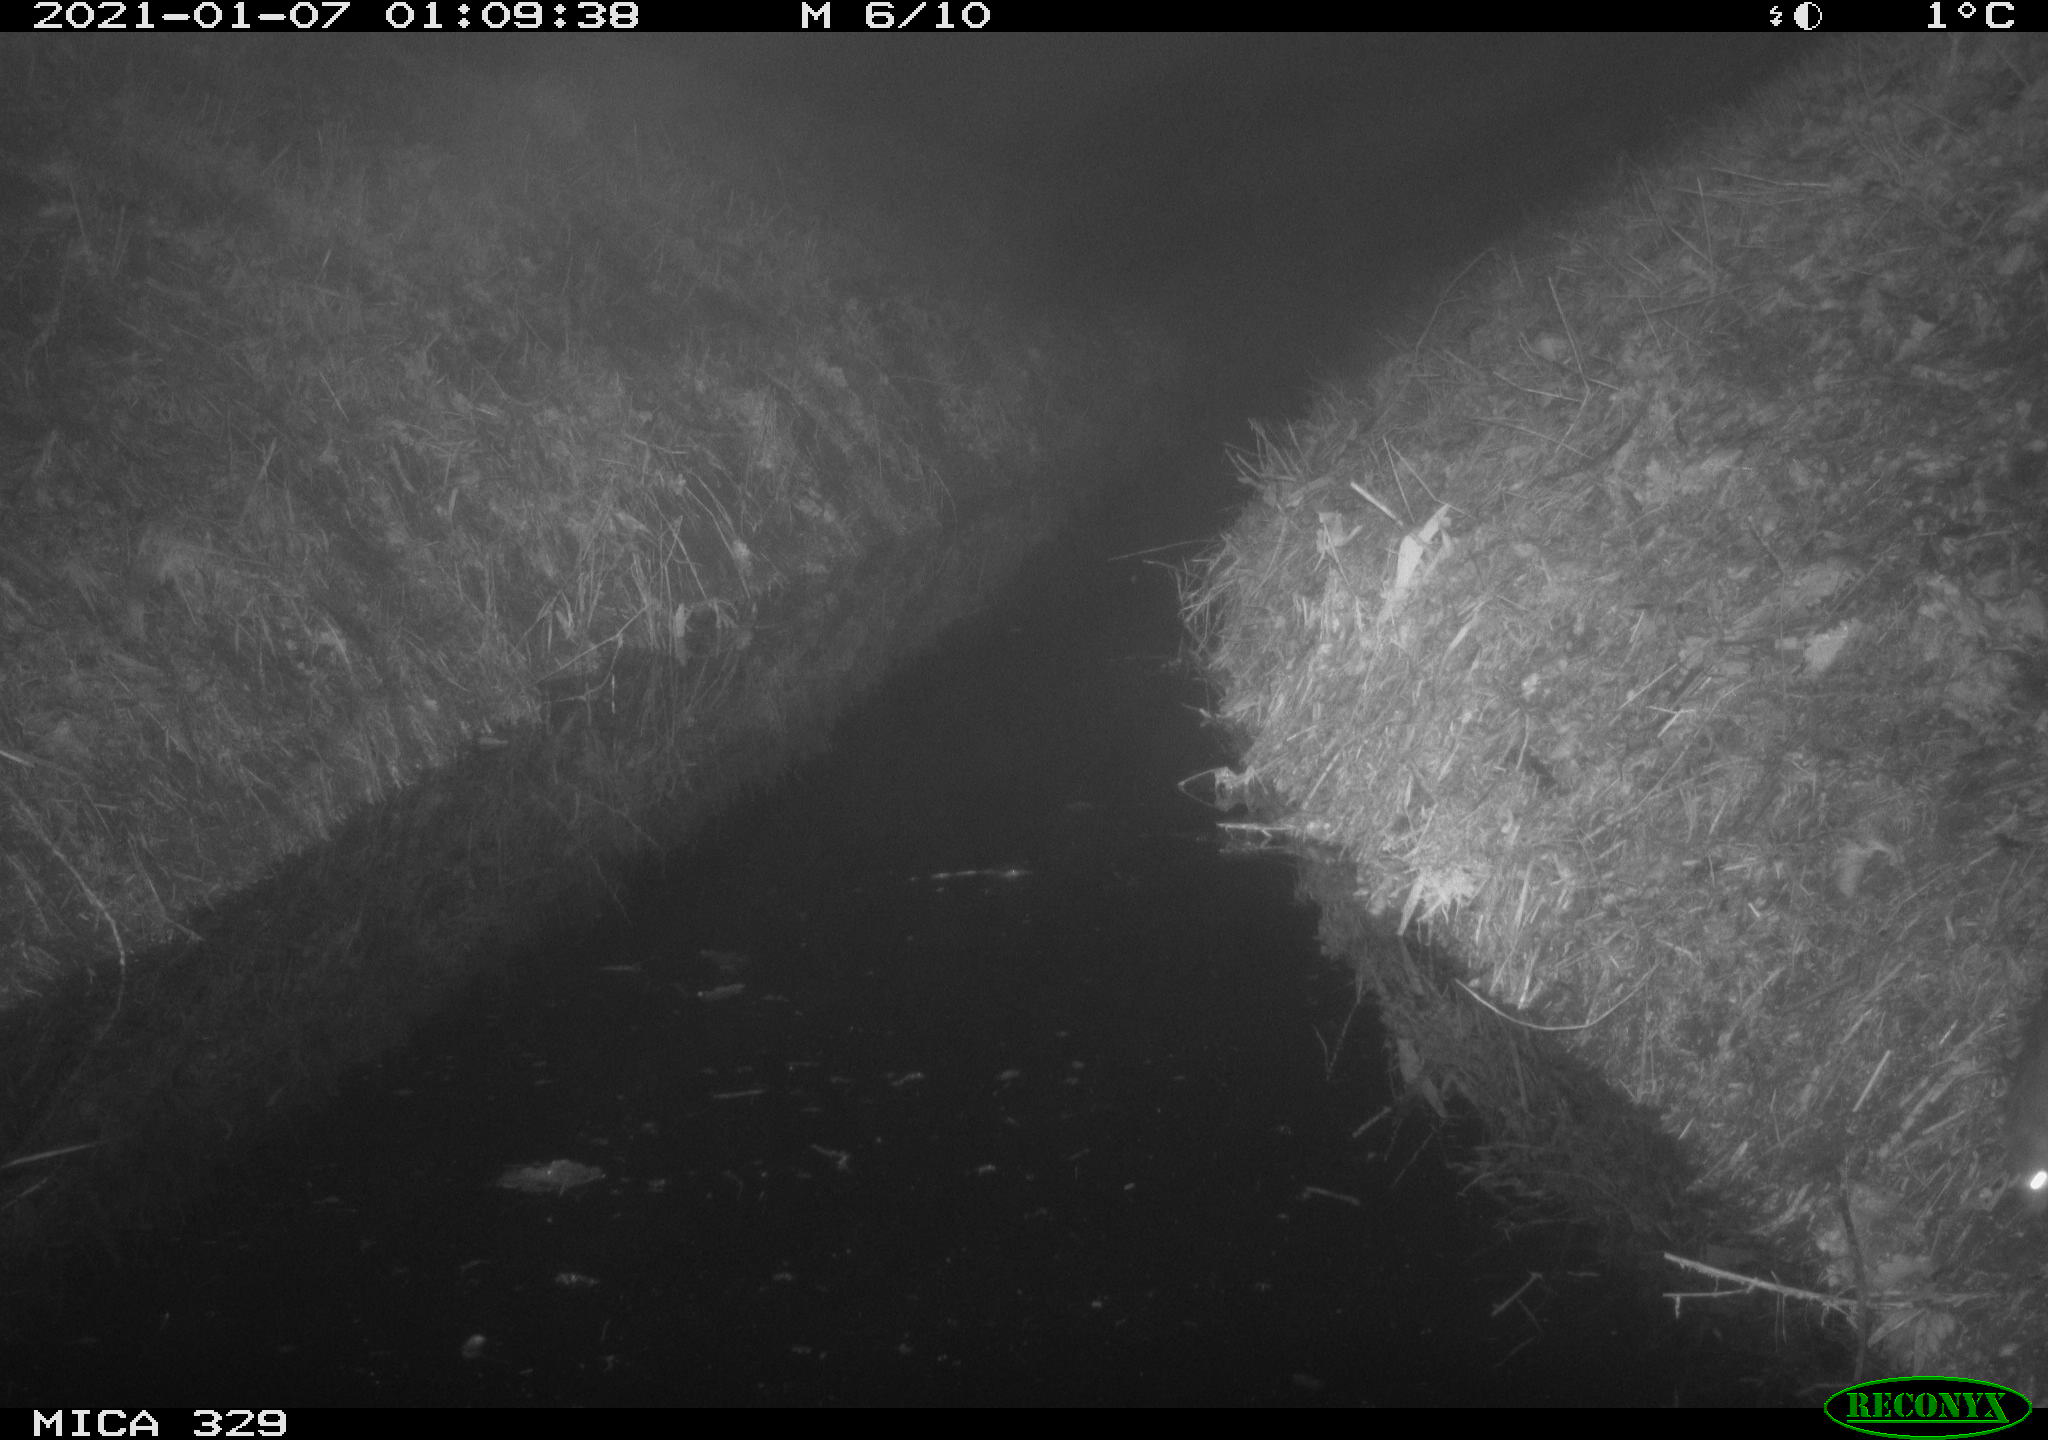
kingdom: Animalia
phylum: Chordata
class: Mammalia
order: Rodentia
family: Muridae
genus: Rattus
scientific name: Rattus norvegicus
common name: Brown rat
